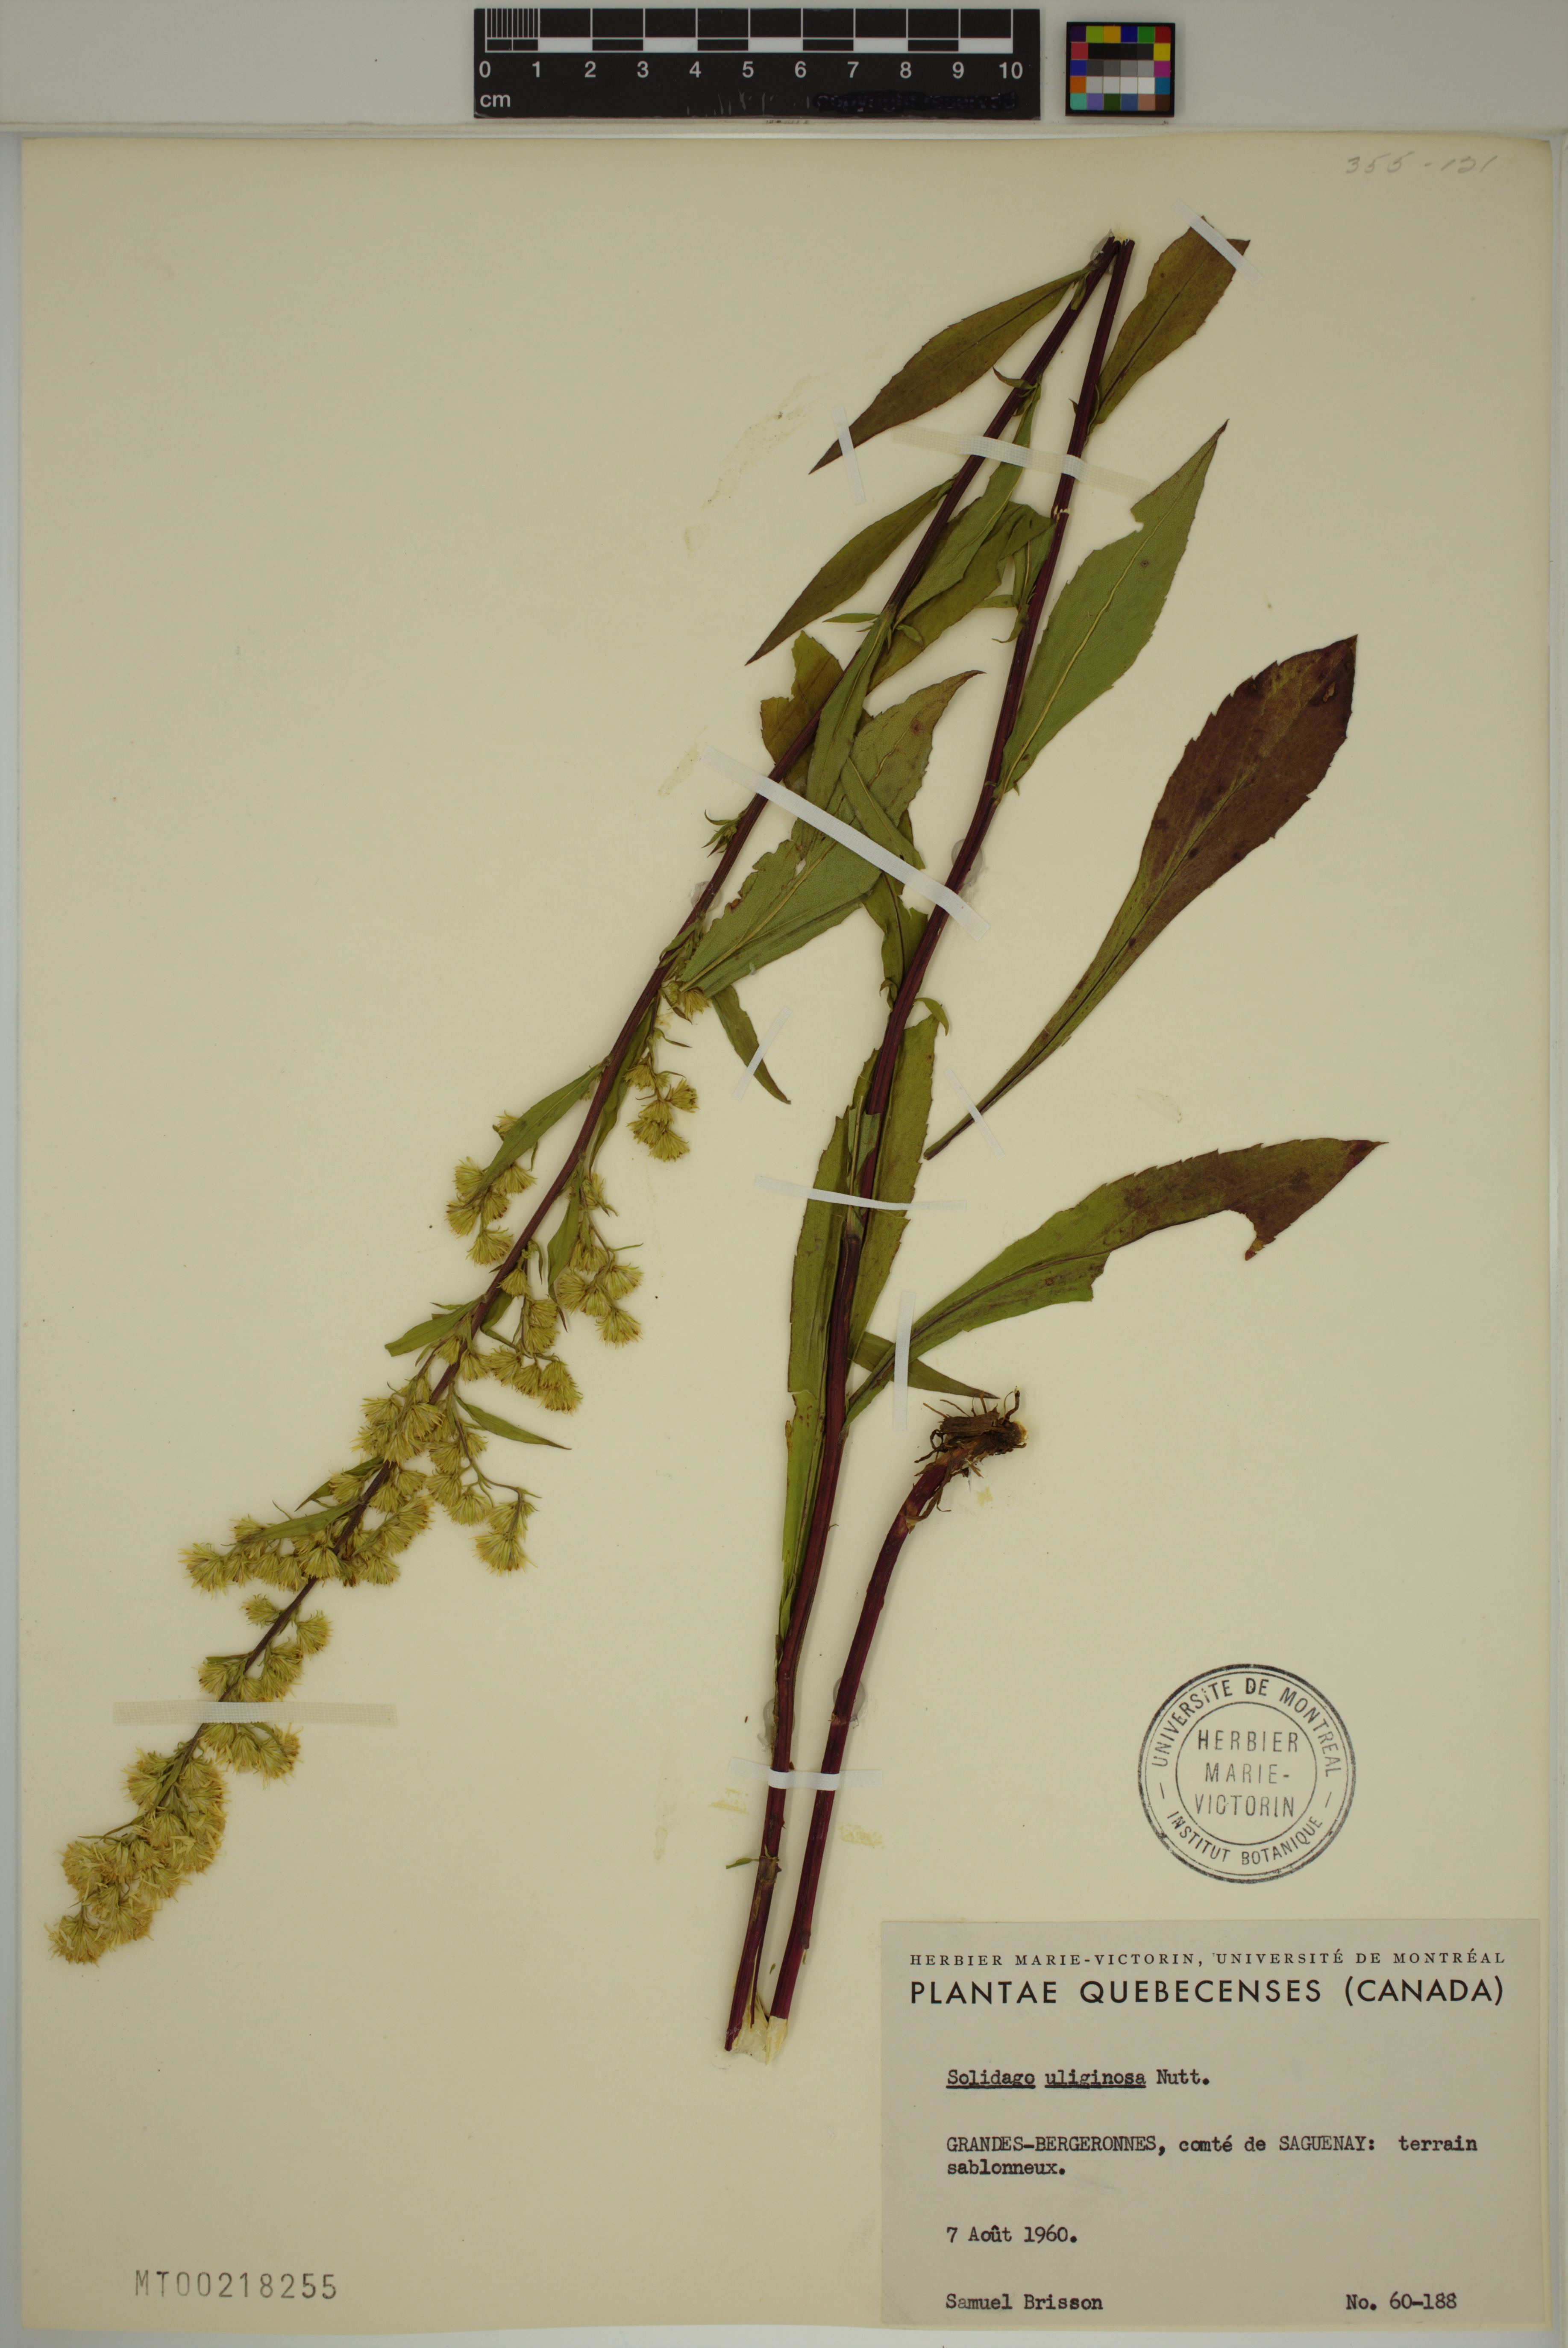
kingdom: Plantae
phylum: Tracheophyta
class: Magnoliopsida
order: Asterales
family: Asteraceae
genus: Solidago
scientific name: Solidago uliginosa
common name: Bog goldenrod
